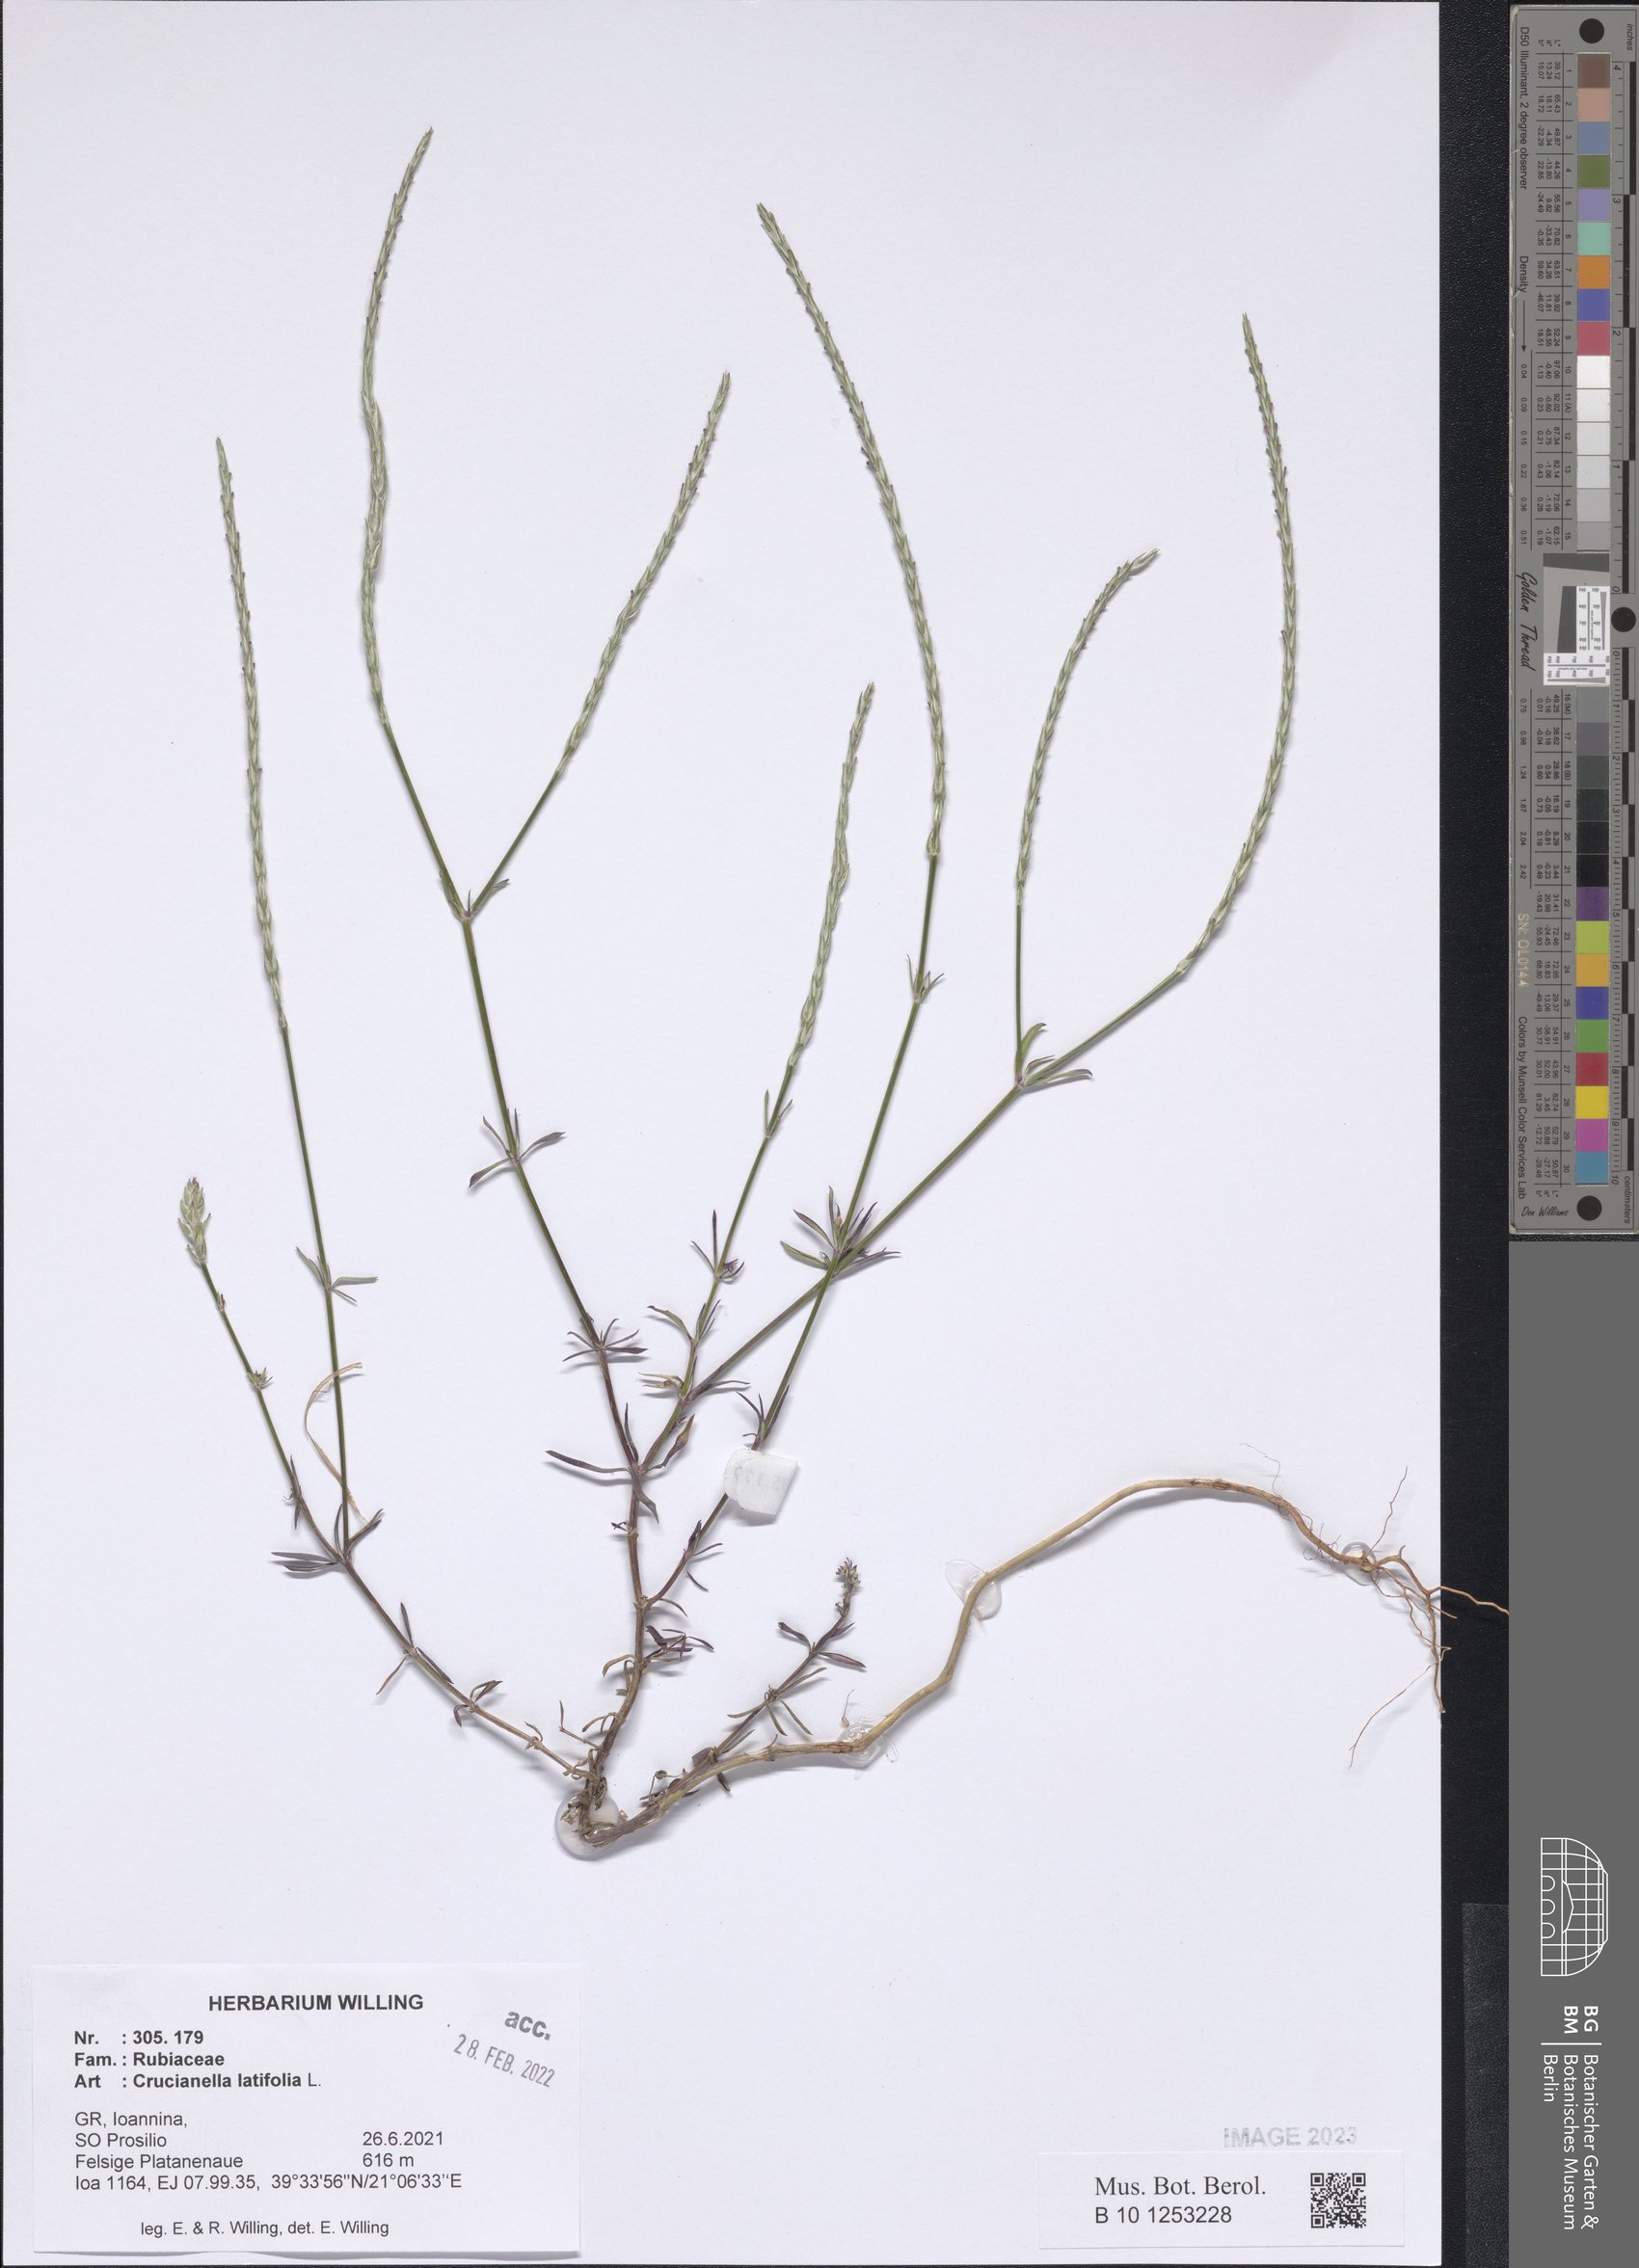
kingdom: Plantae
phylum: Tracheophyta
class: Magnoliopsida
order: Gentianales
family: Rubiaceae
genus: Crucianella
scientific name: Crucianella latifolia
